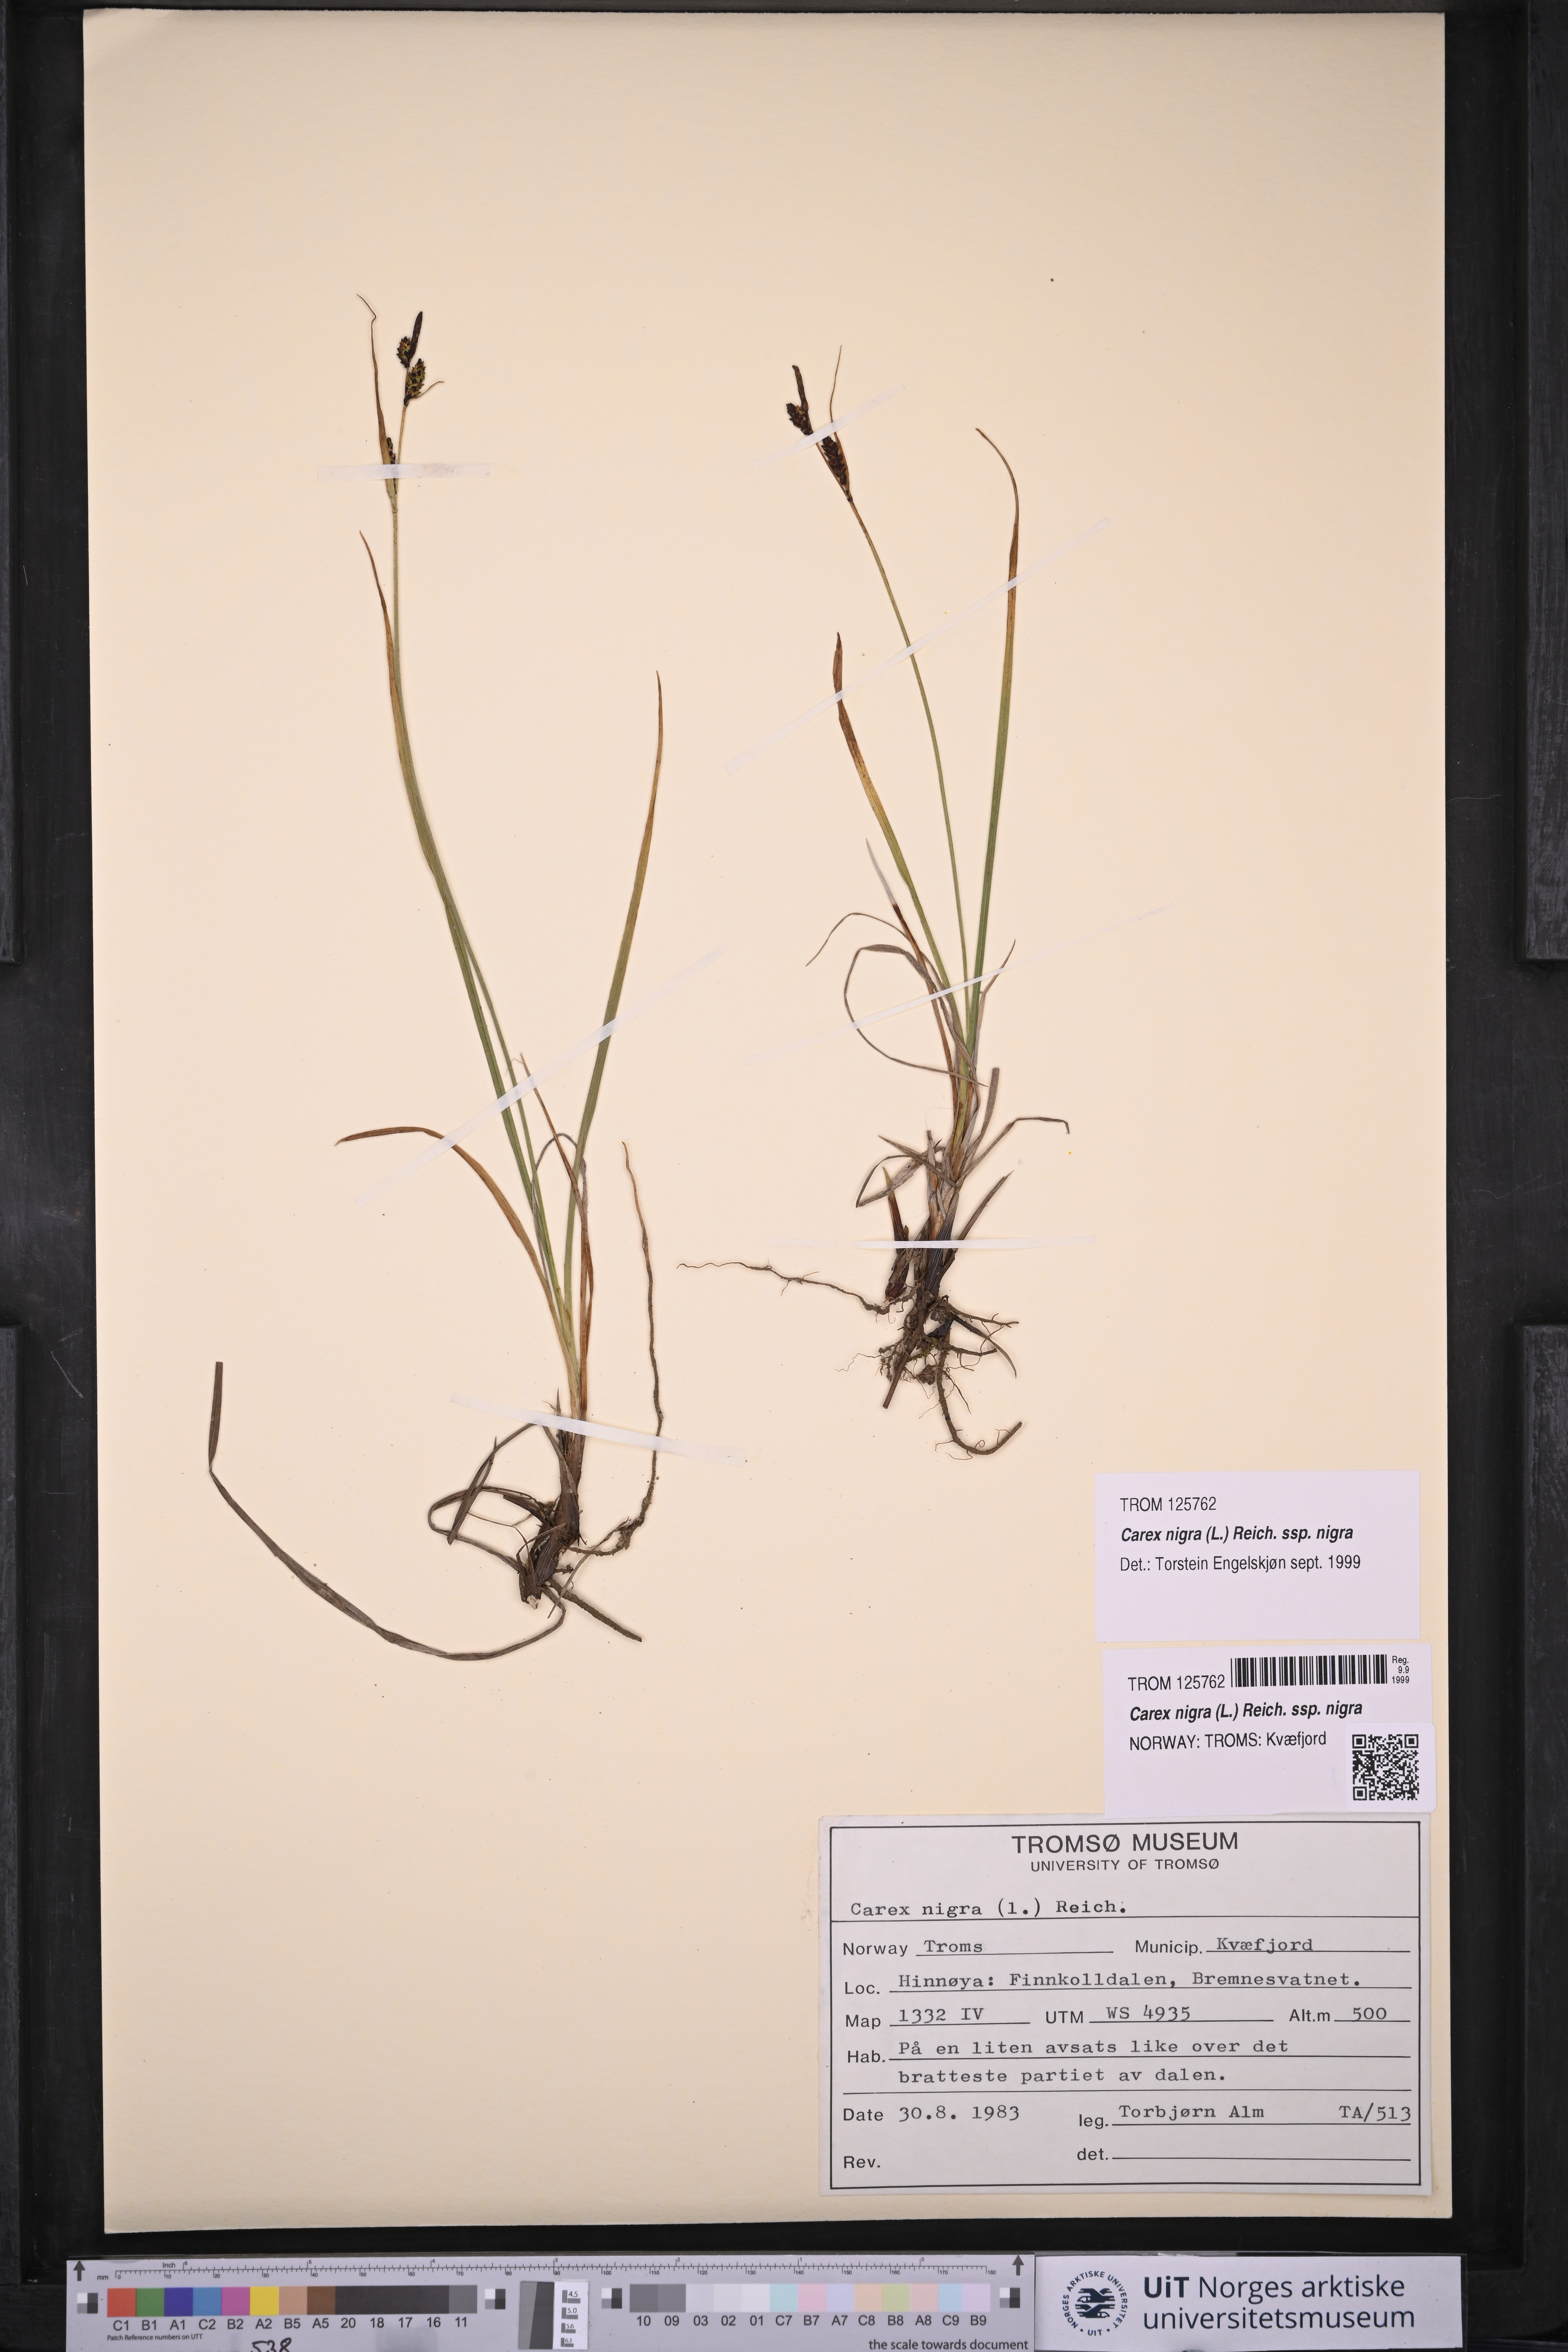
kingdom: Plantae
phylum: Tracheophyta
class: Liliopsida
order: Poales
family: Cyperaceae
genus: Carex
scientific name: Carex nigra
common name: Common sedge
